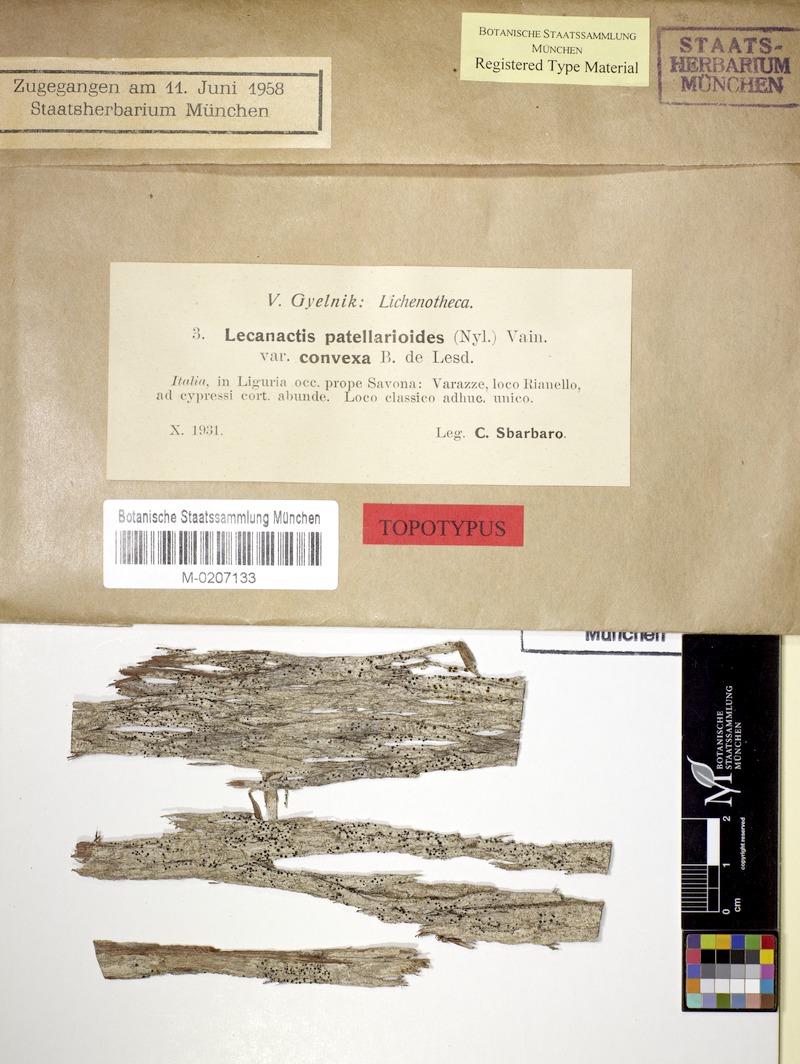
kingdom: Fungi
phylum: Ascomycota
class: Arthoniomycetes
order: Arthoniales
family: Roccellaceae
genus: Bactrospora
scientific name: Bactrospora patellarioides
